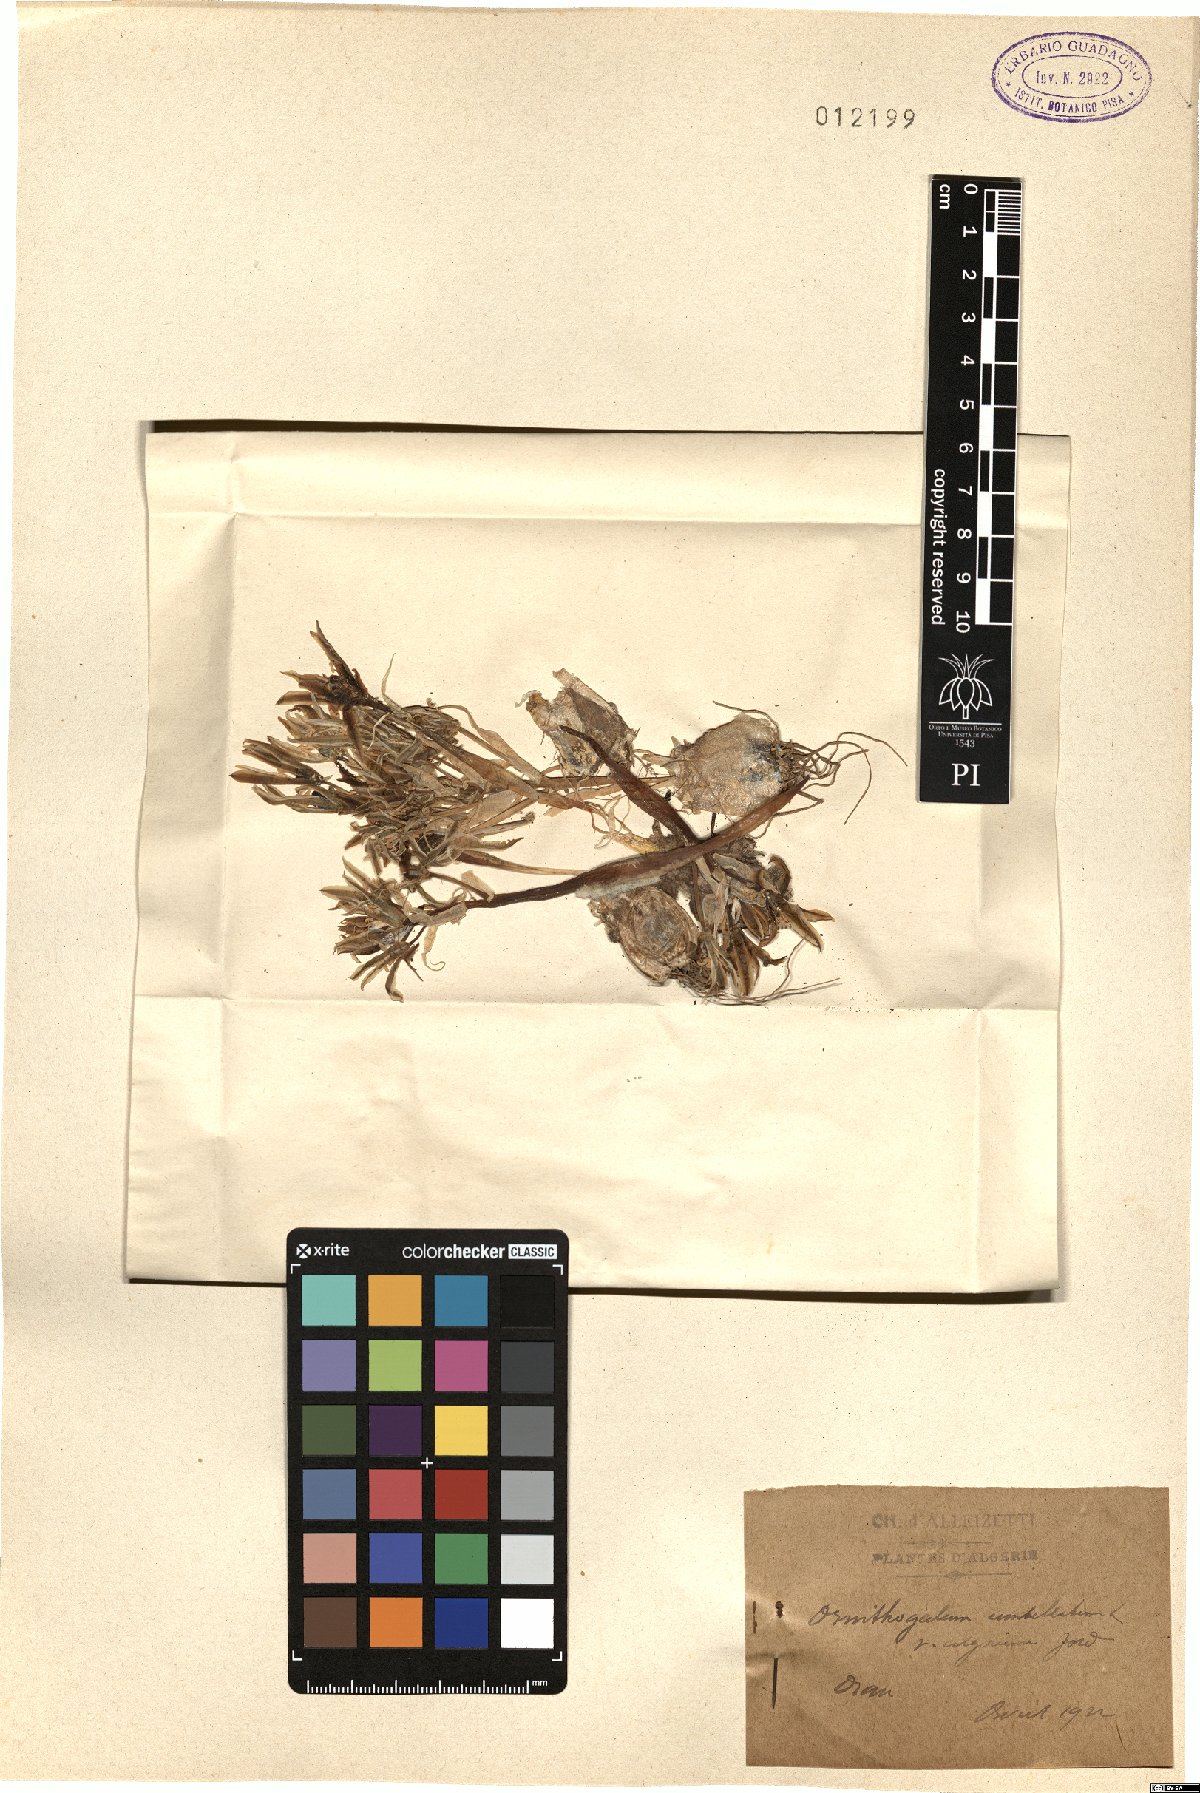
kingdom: Plantae
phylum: Tracheophyta
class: Liliopsida
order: Asparagales
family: Asparagaceae
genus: Ornithogalum
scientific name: Ornithogalum baeticum
